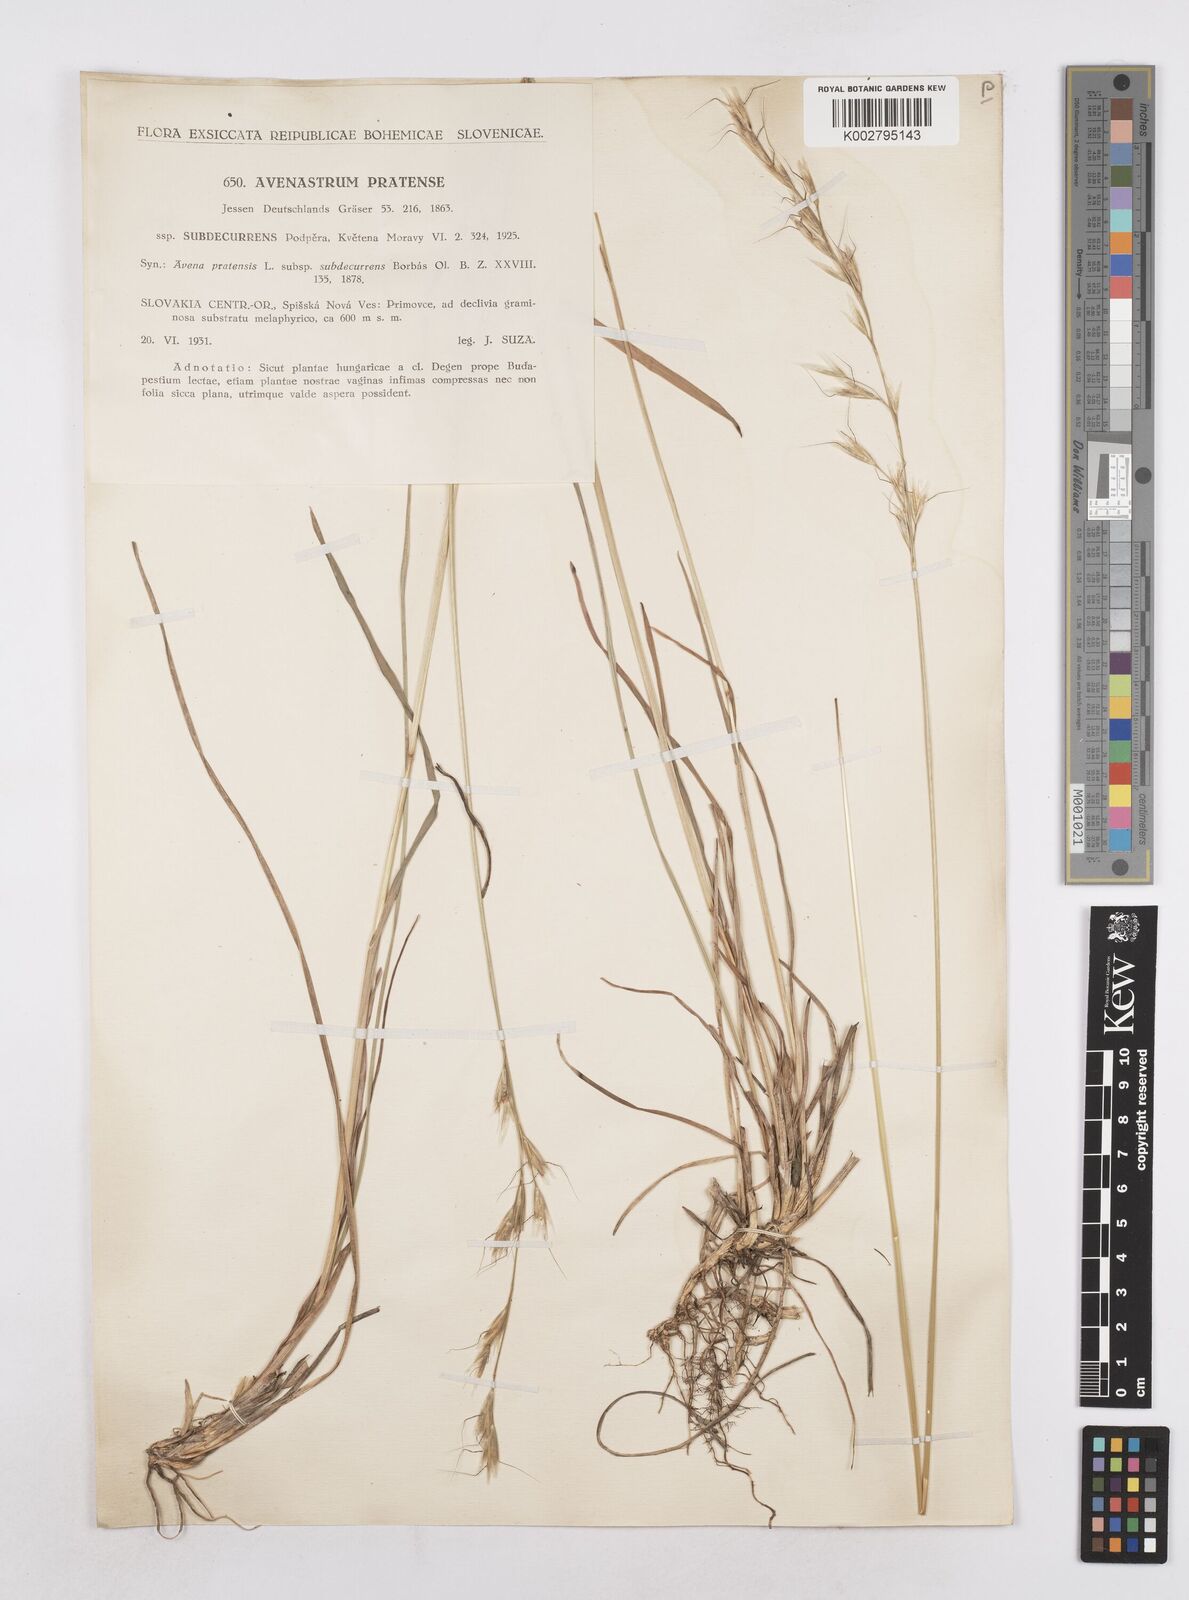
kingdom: Plantae
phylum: Tracheophyta
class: Liliopsida
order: Poales
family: Poaceae
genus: Helictochloa
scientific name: Helictochloa pratensis
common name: Meadow oat grass
